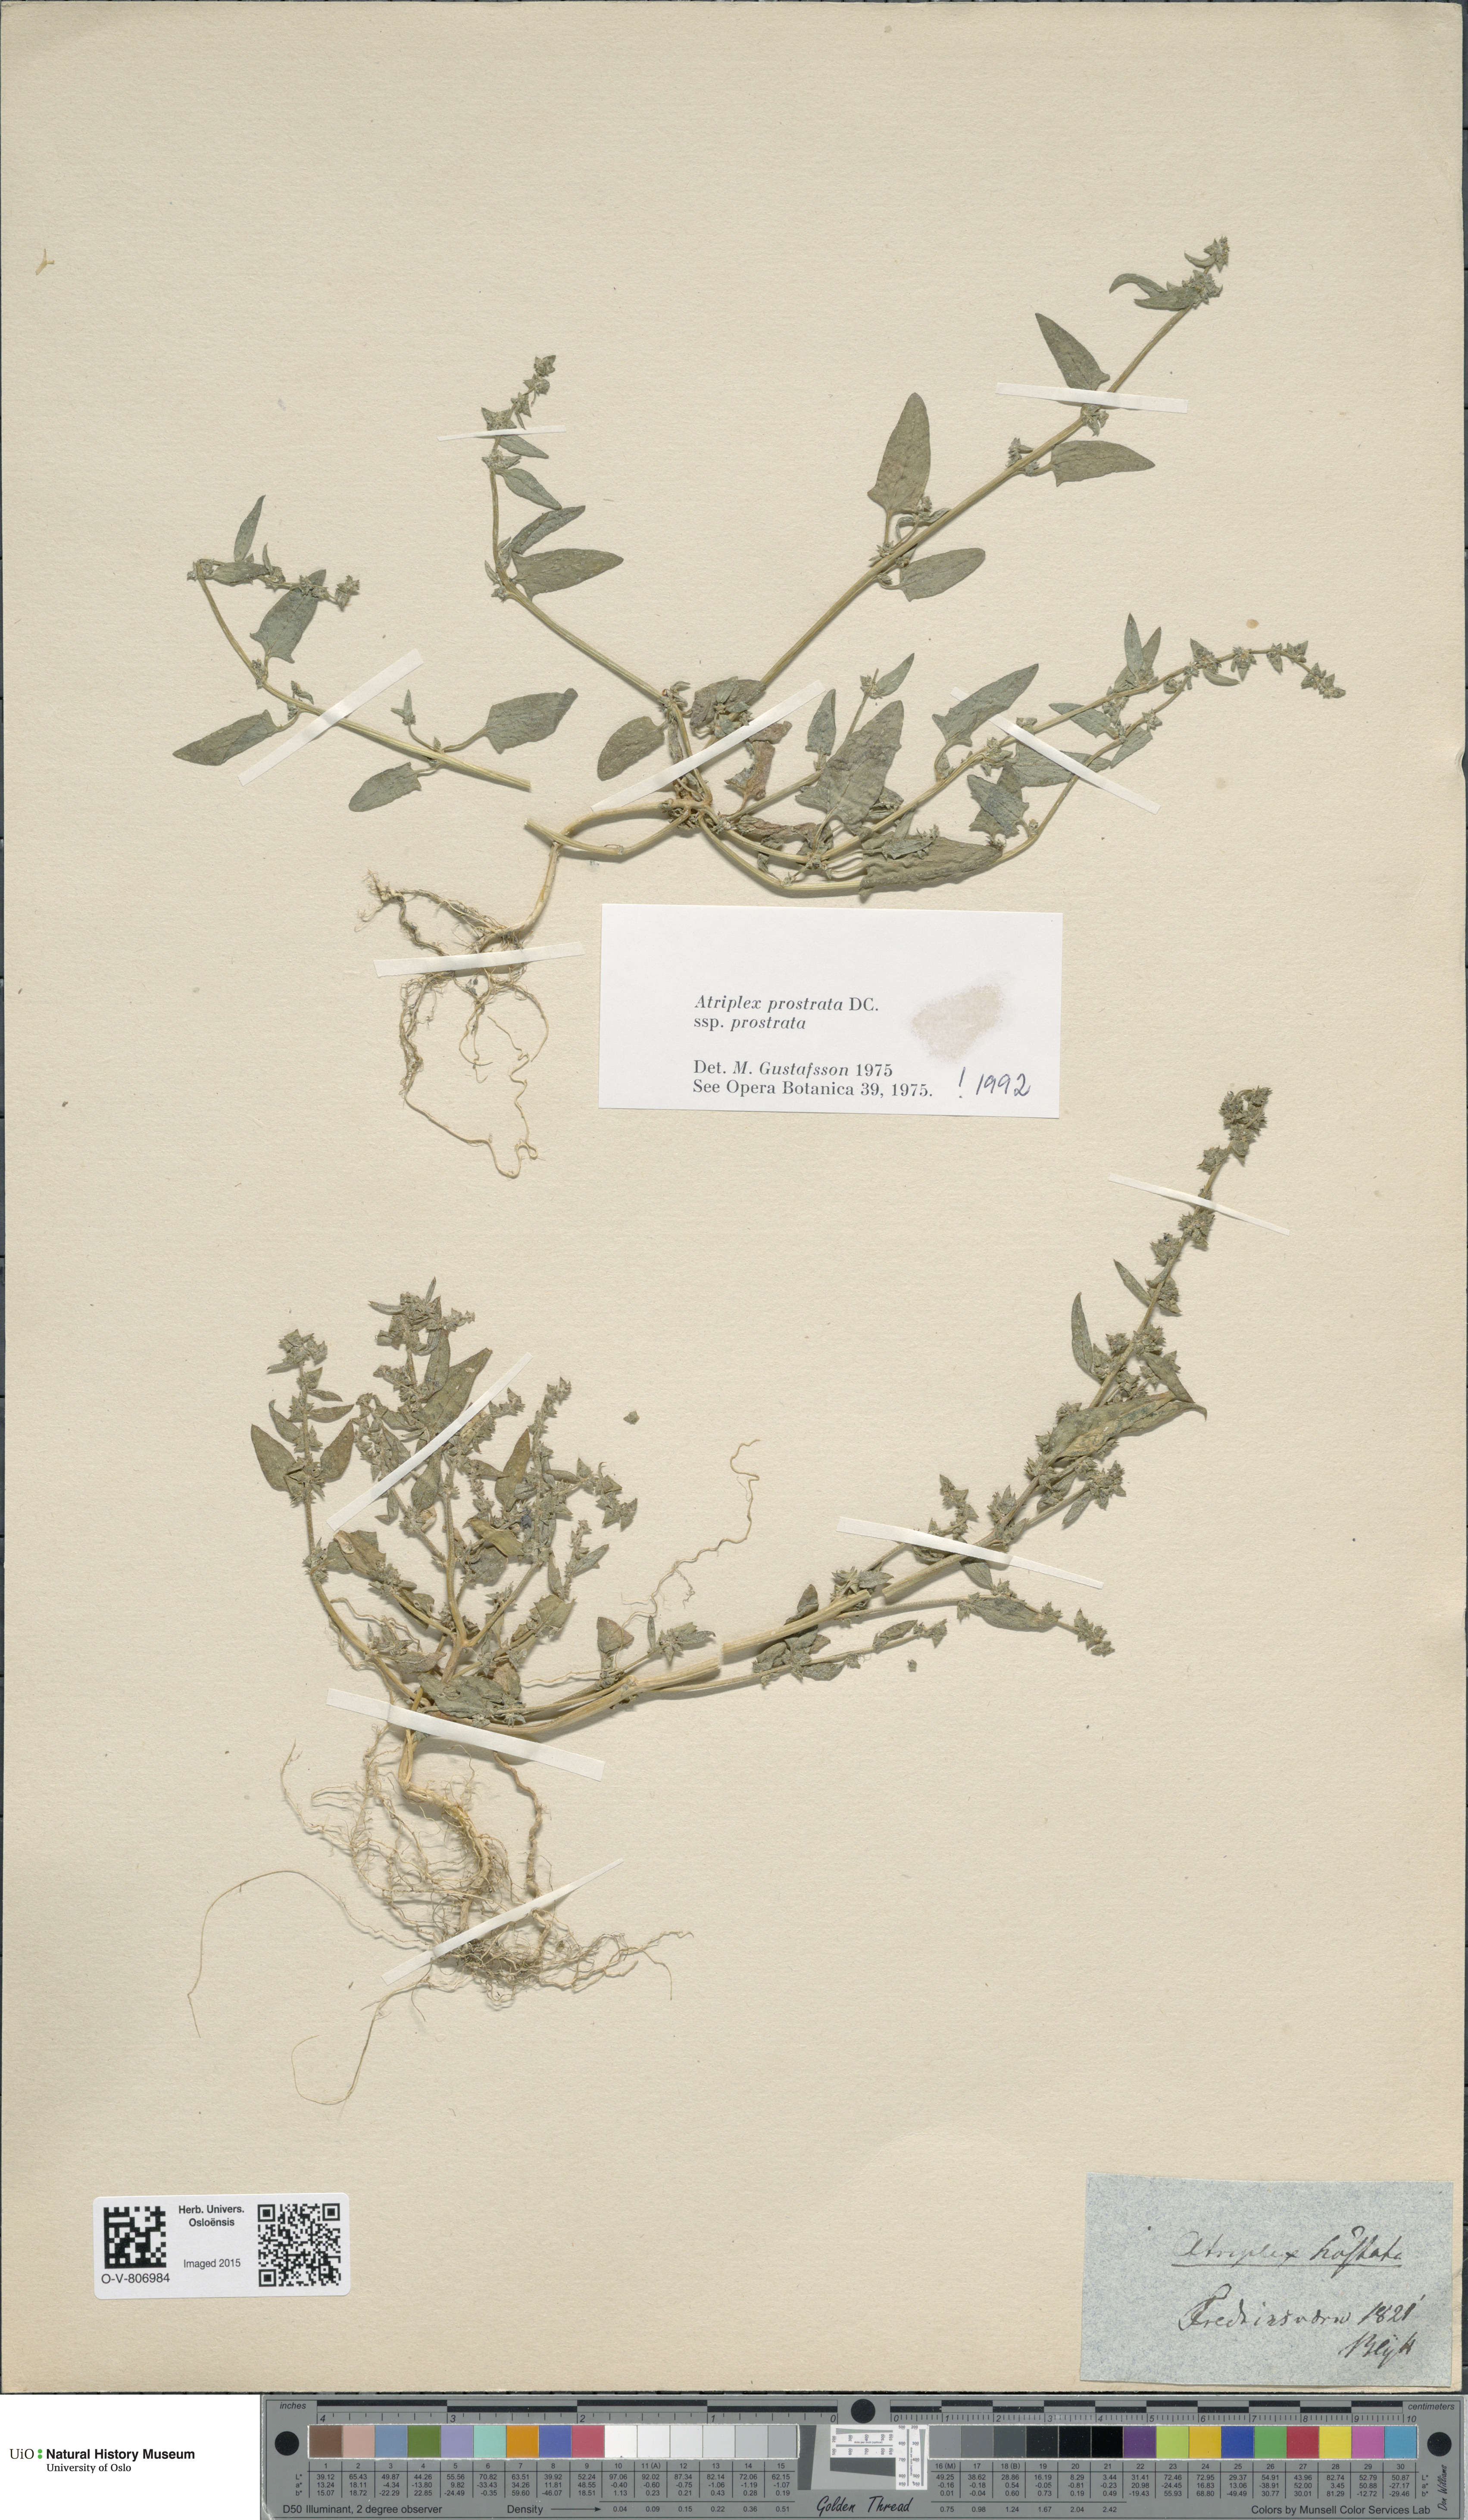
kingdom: Plantae
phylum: Tracheophyta
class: Magnoliopsida
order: Caryophyllales
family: Amaranthaceae
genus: Atriplex
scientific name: Atriplex prostrata
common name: Spear-leaved orache
